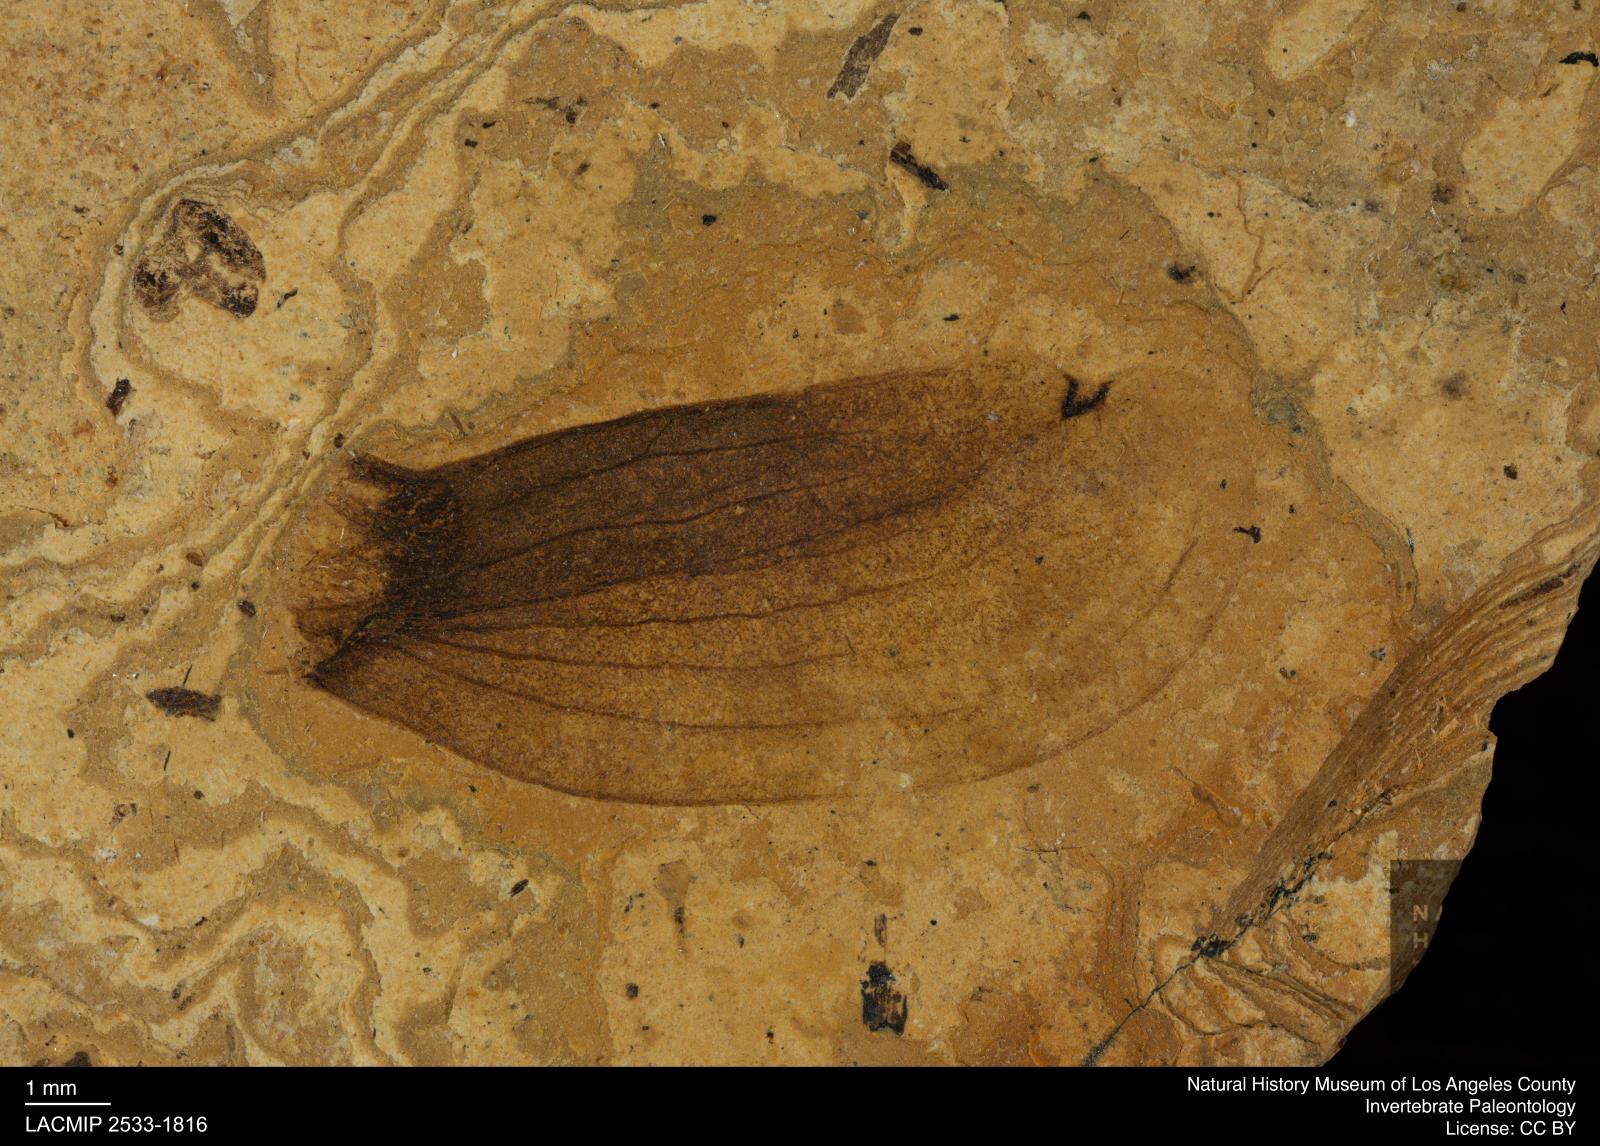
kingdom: Plantae
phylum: Tracheophyta
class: Magnoliopsida
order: Sapindales
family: Meliaceae
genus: Cedrelospermum
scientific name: Cedrelospermum aquense
